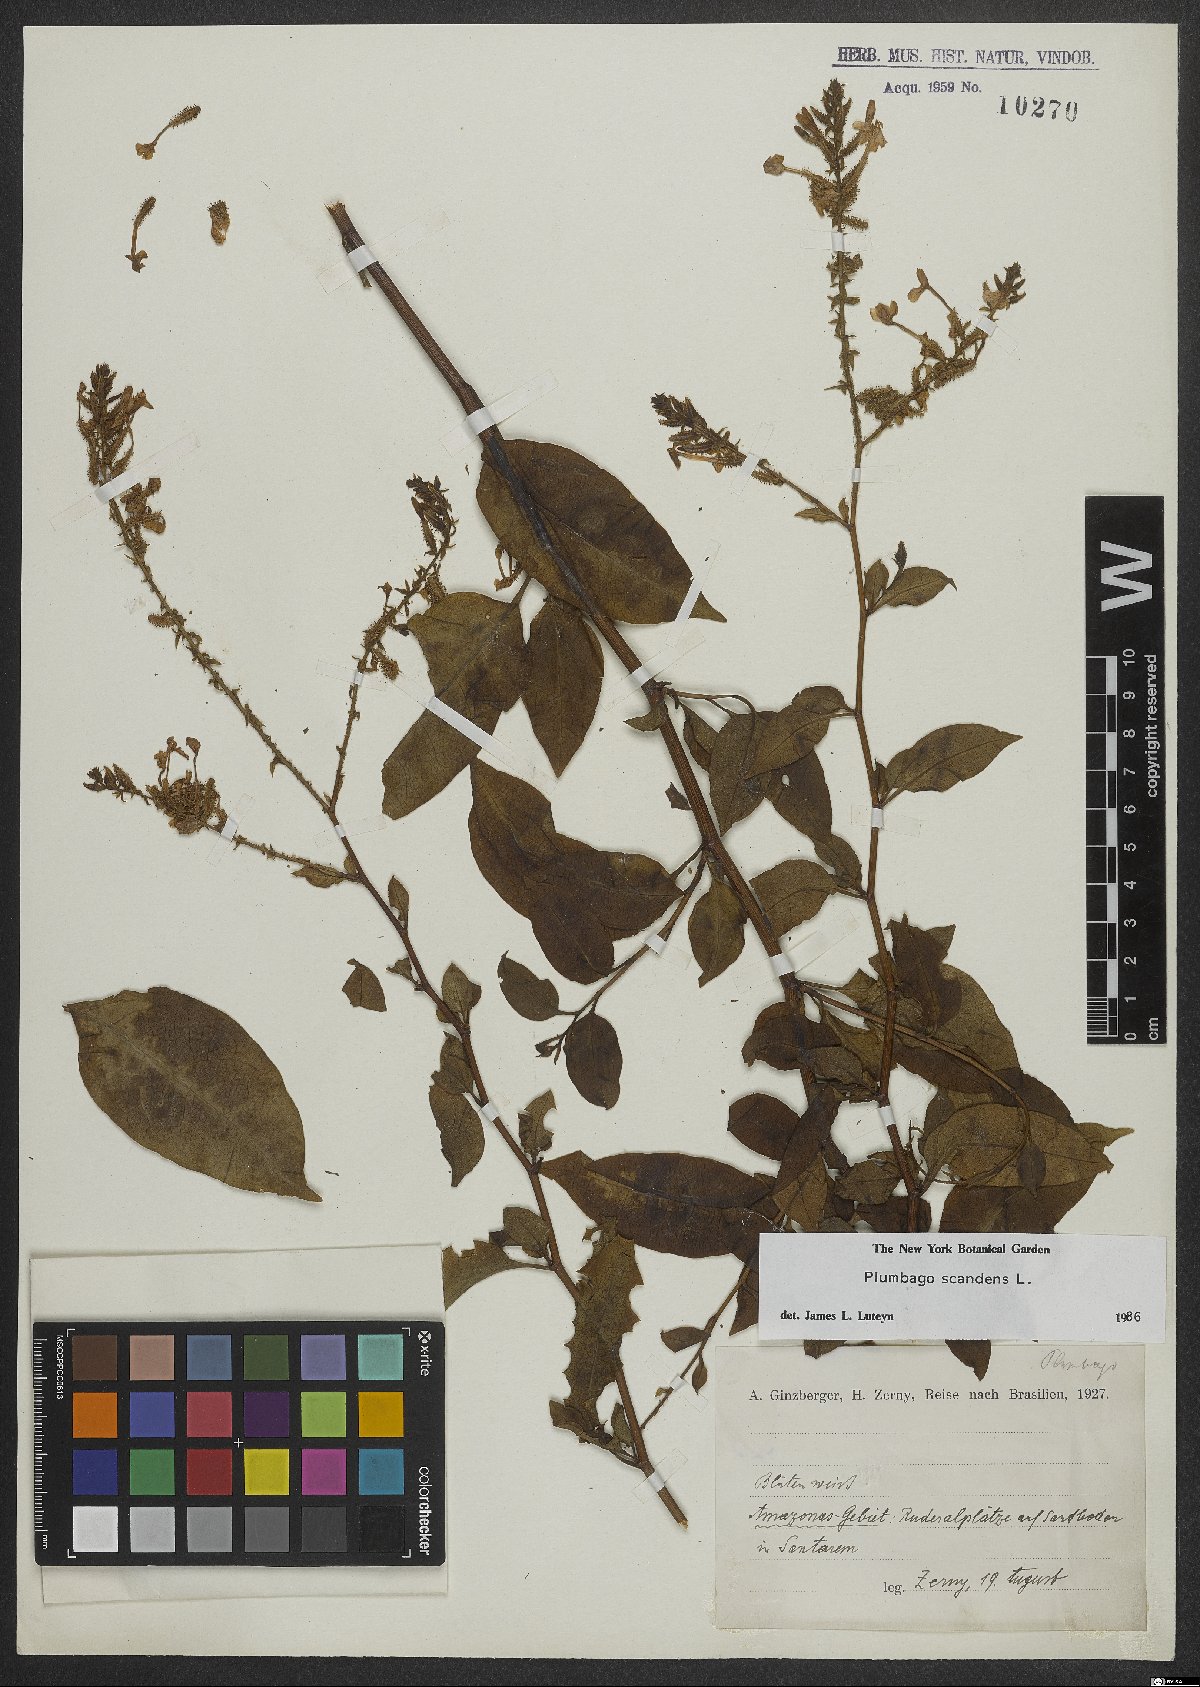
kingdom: Plantae
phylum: Tracheophyta
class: Magnoliopsida
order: Caryophyllales
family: Plumbaginaceae
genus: Plumbago
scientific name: Plumbago zeylanica
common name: Doctorbush
